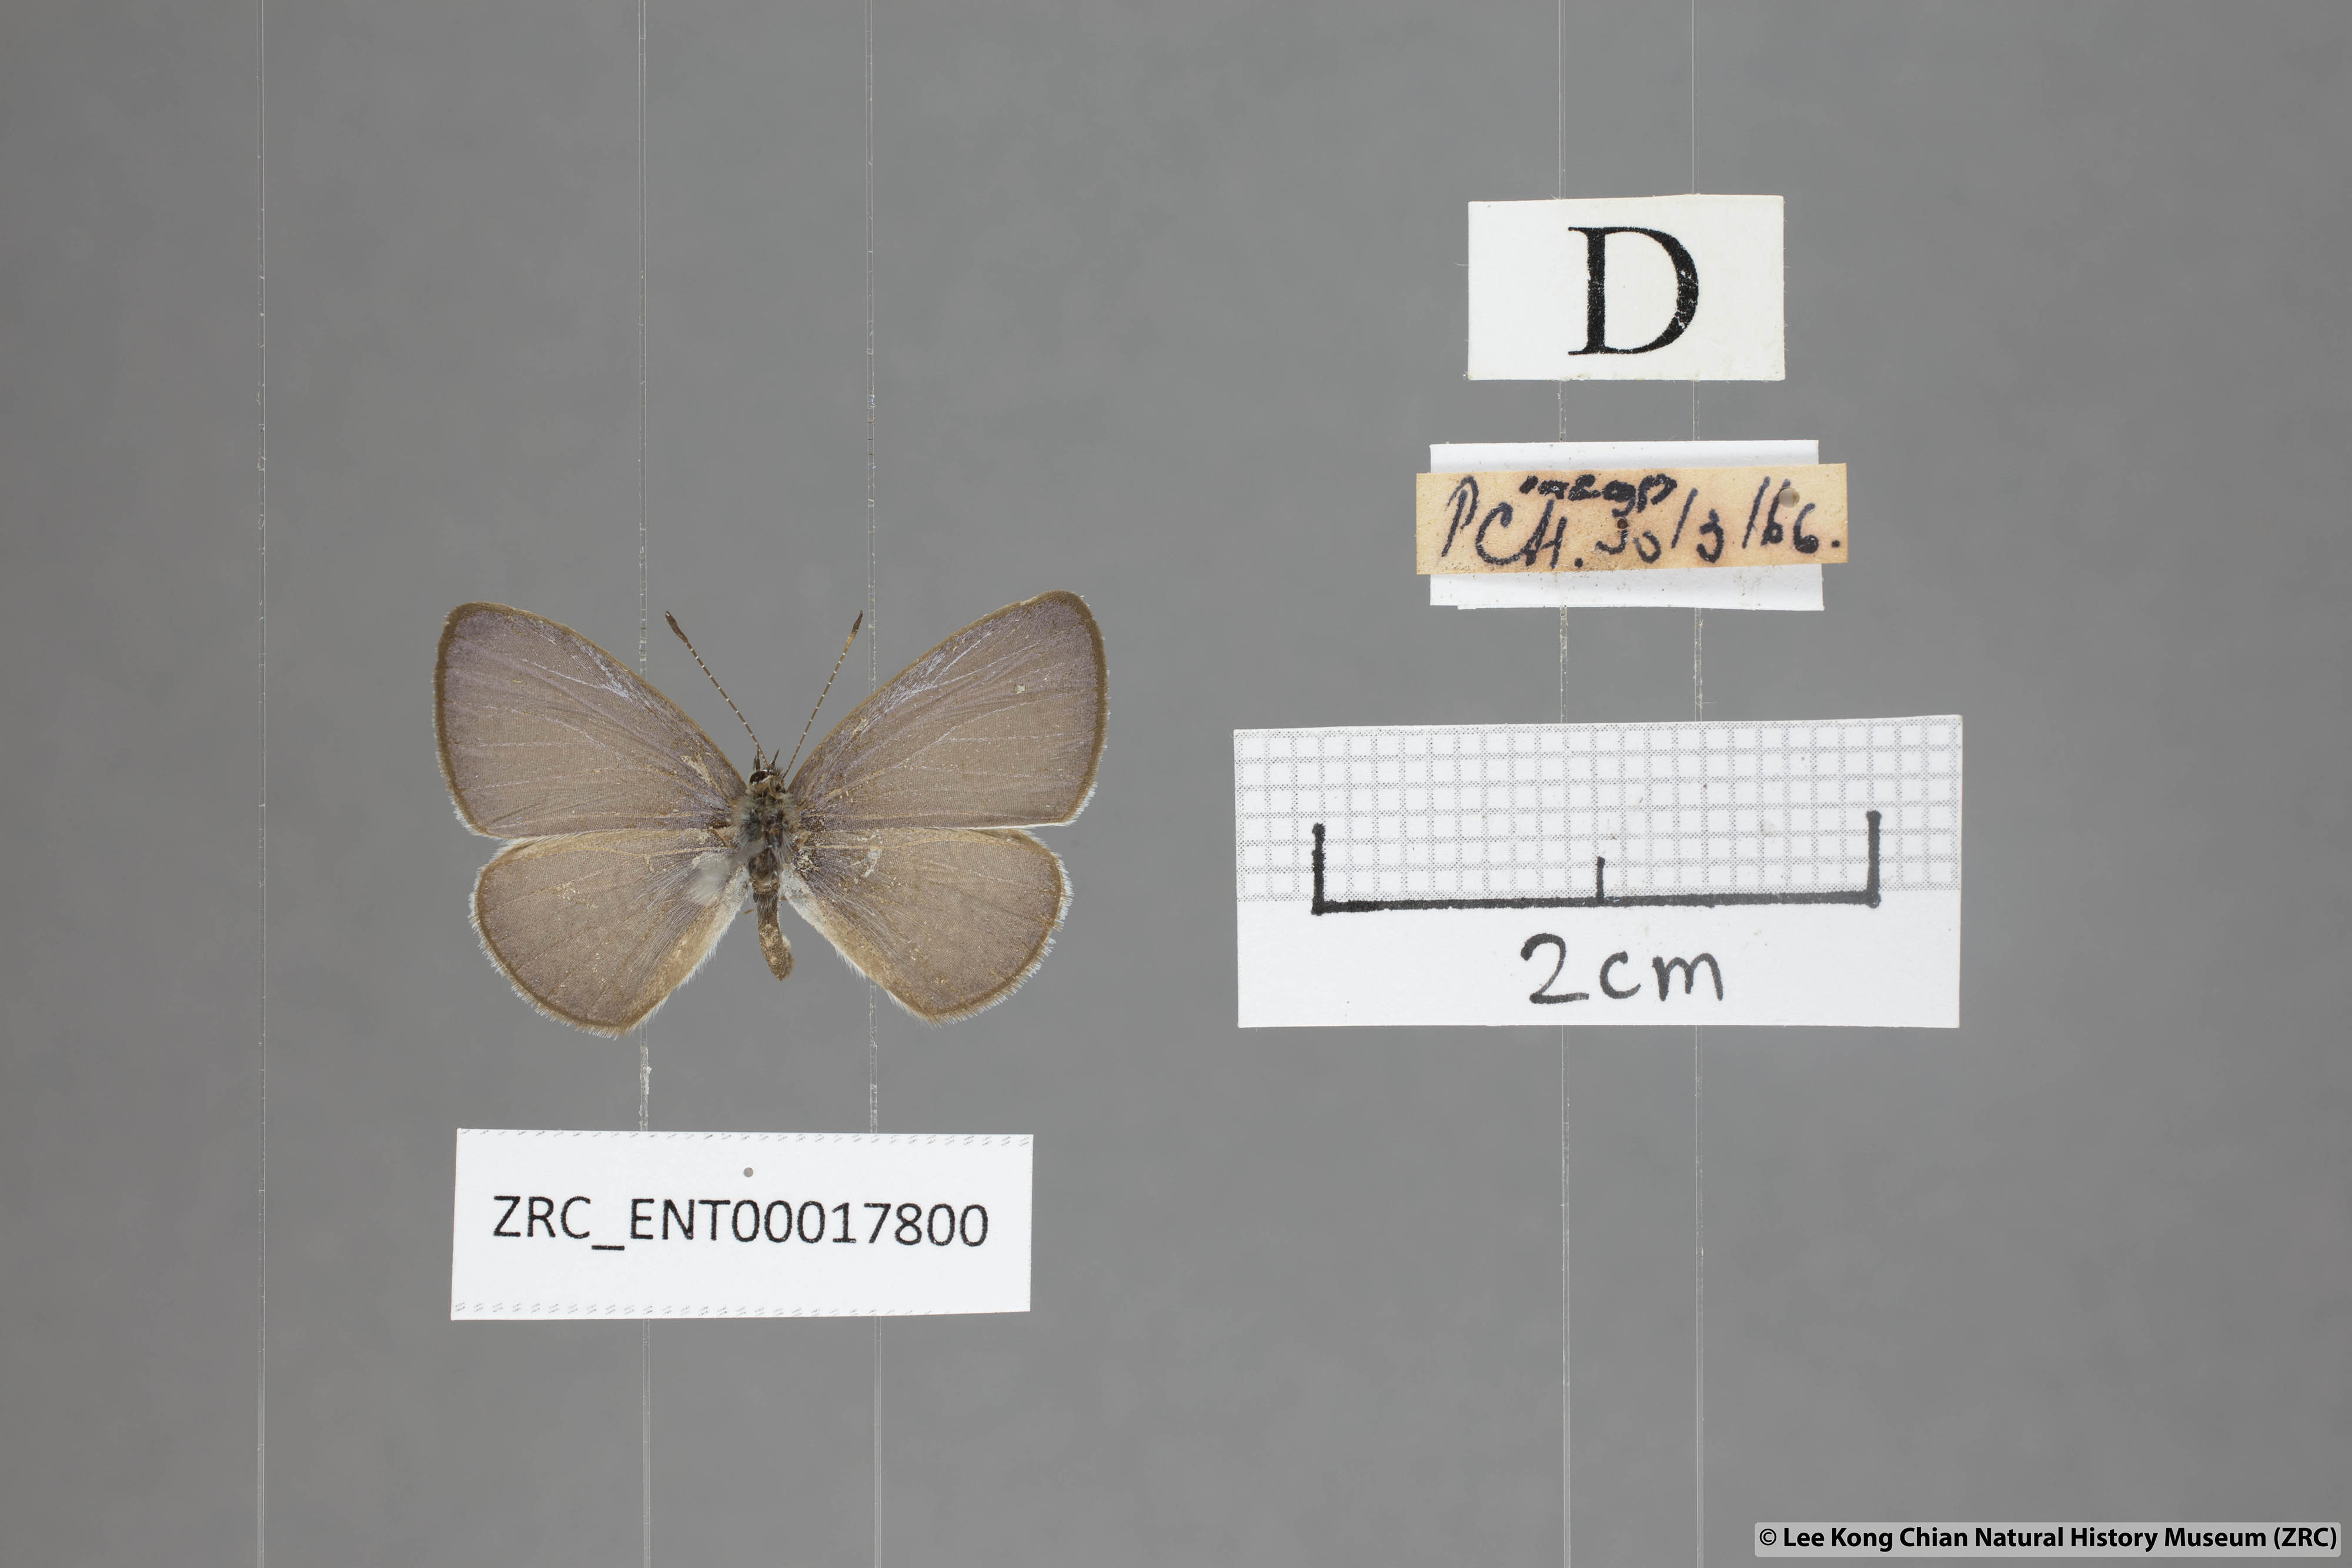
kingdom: Animalia
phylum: Arthropoda
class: Insecta
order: Lepidoptera
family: Lycaenidae
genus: Monodontides
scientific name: Monodontides
